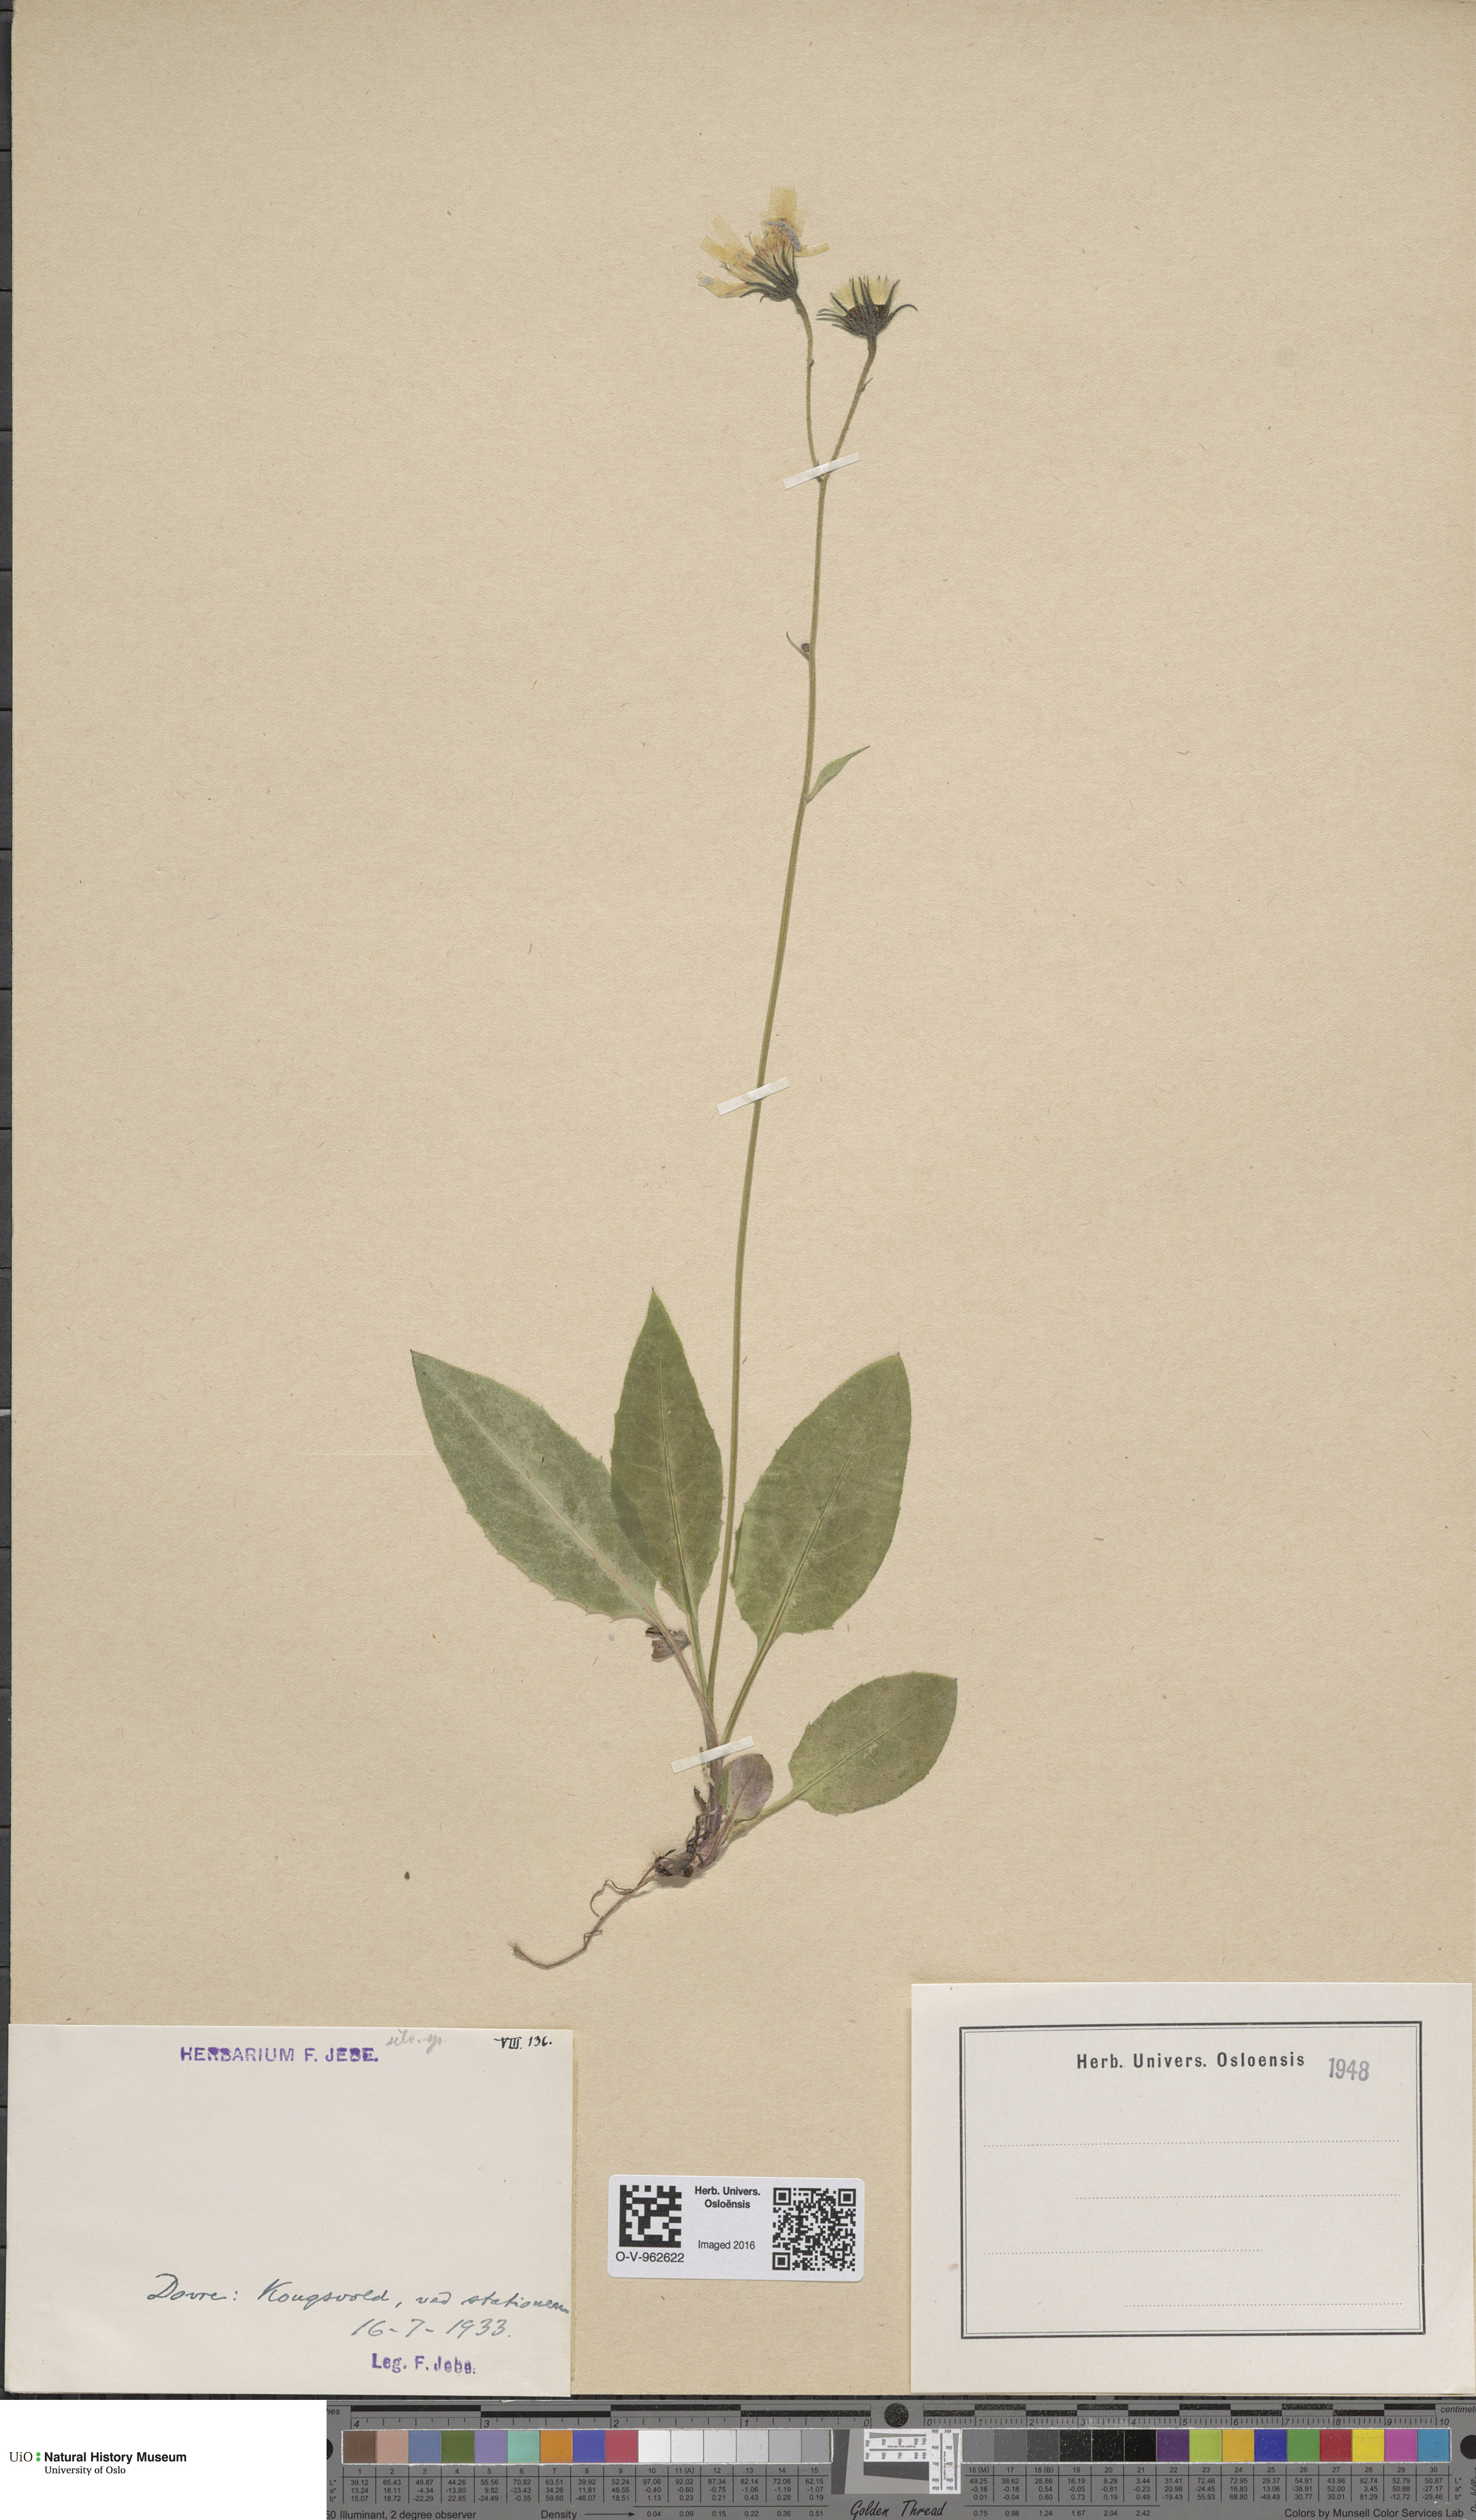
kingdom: Plantae
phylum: Tracheophyta
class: Magnoliopsida
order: Asterales
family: Asteraceae
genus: Hieracium
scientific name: Hieracium
